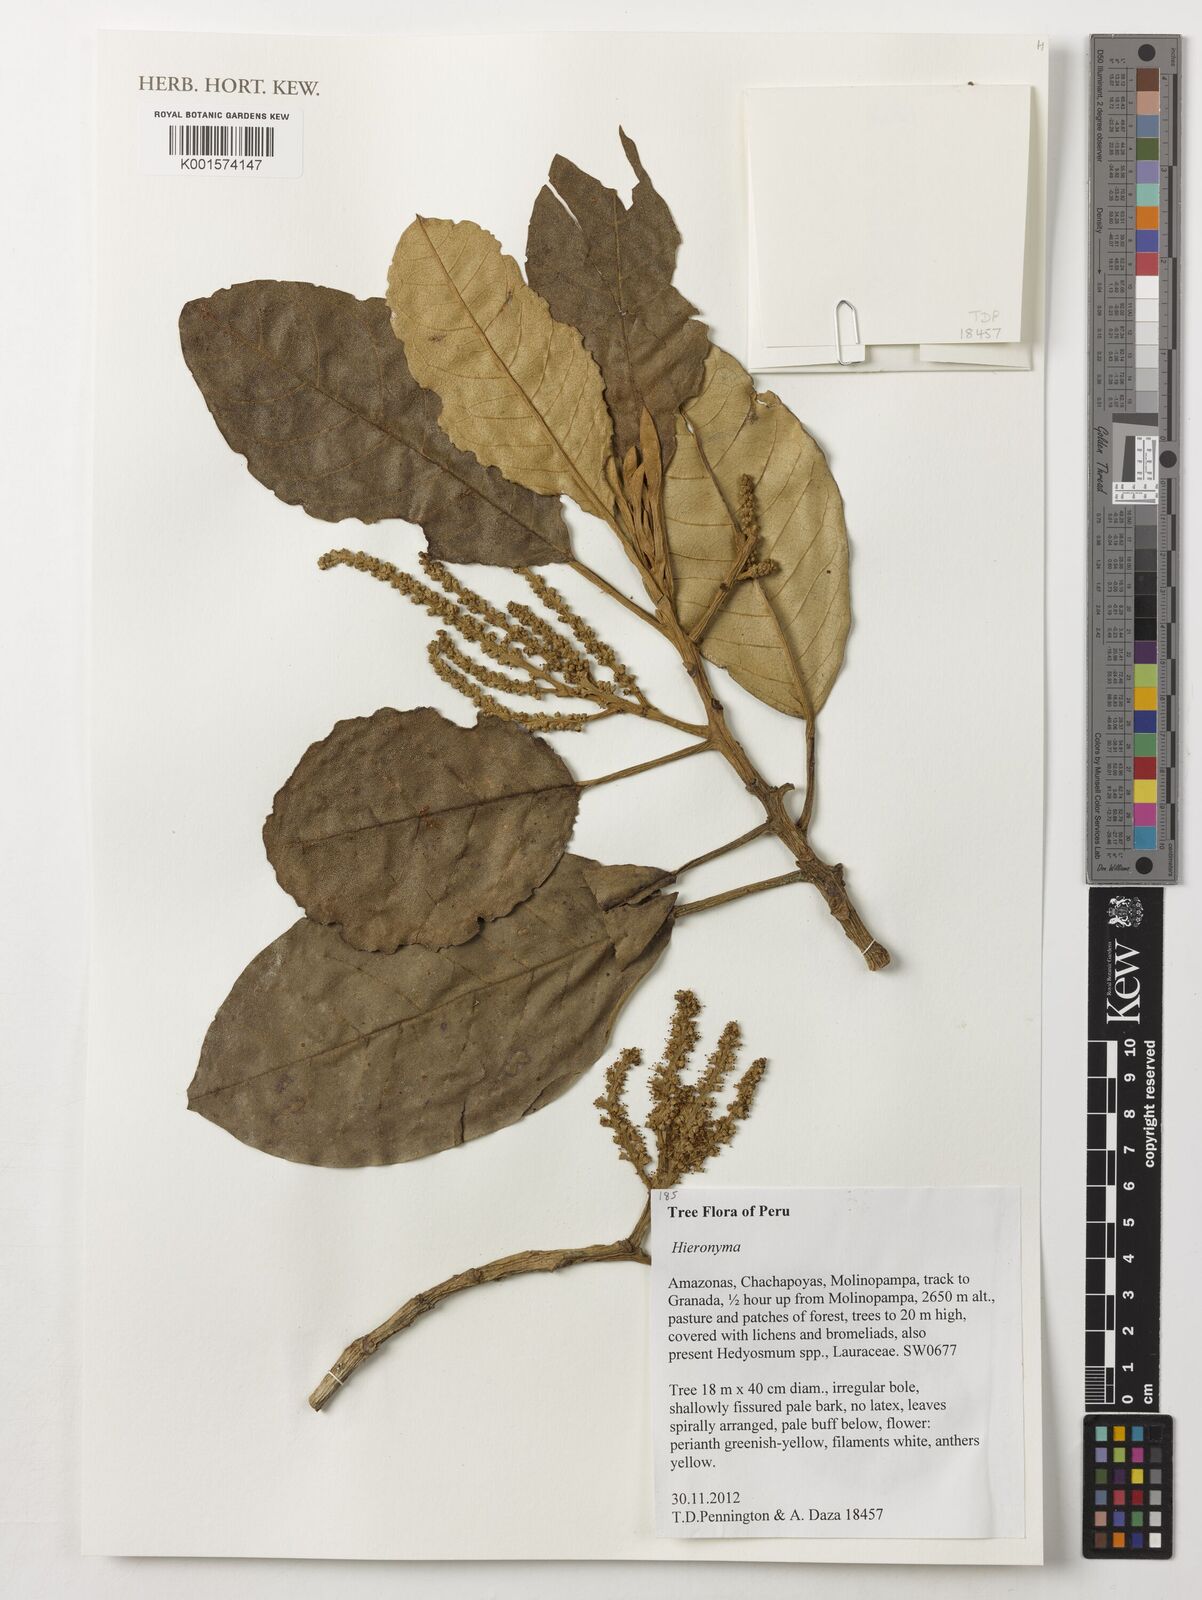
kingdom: Plantae
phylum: Tracheophyta
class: Magnoliopsida
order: Malpighiales
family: Phyllanthaceae
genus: Hieronyma
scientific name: Hieronyma
